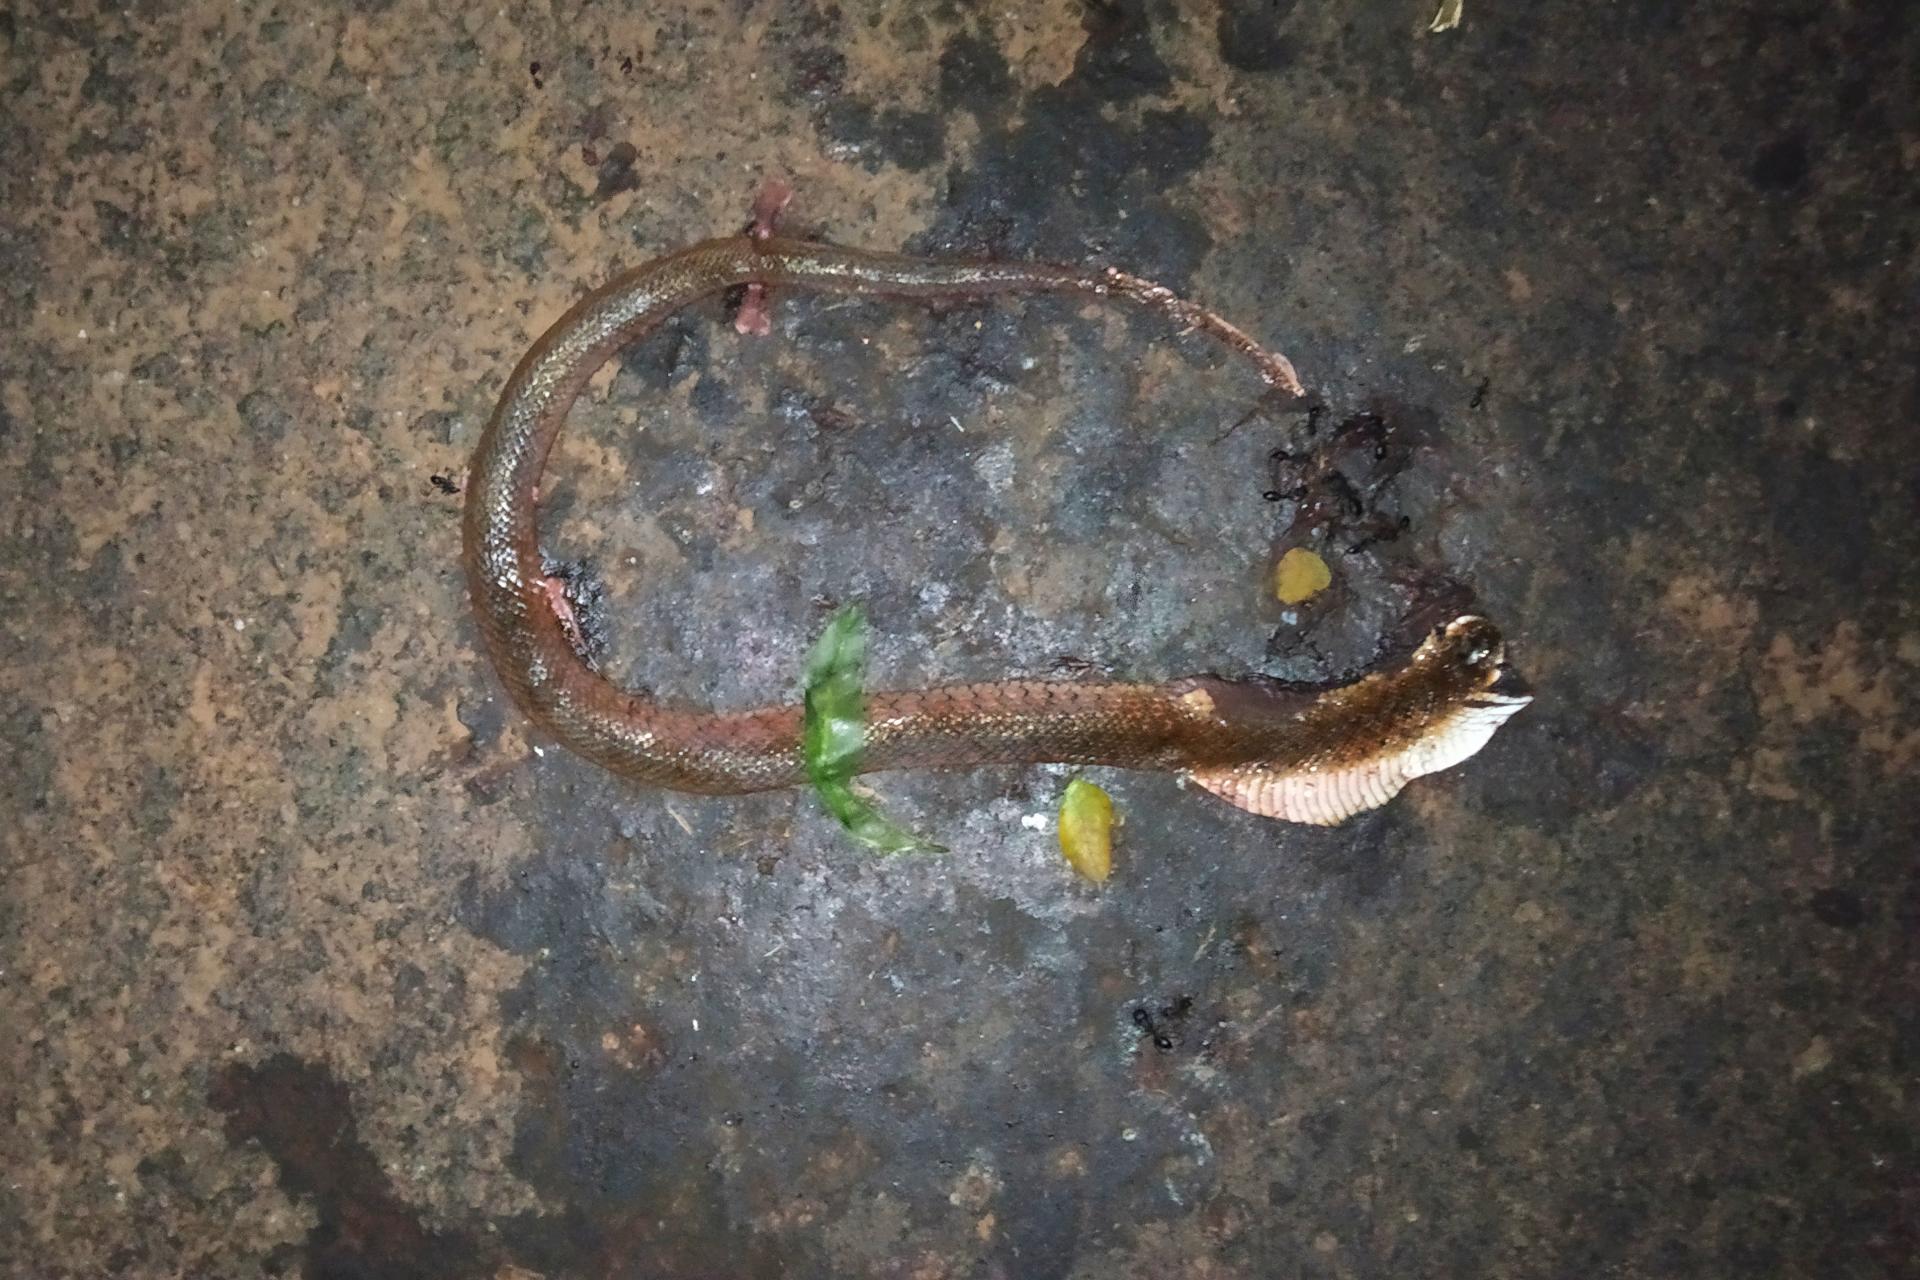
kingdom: Animalia
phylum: Chordata
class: Squamata
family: Colubridae
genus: Fowlea
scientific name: Fowlea piscator
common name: Asiatic water snake
